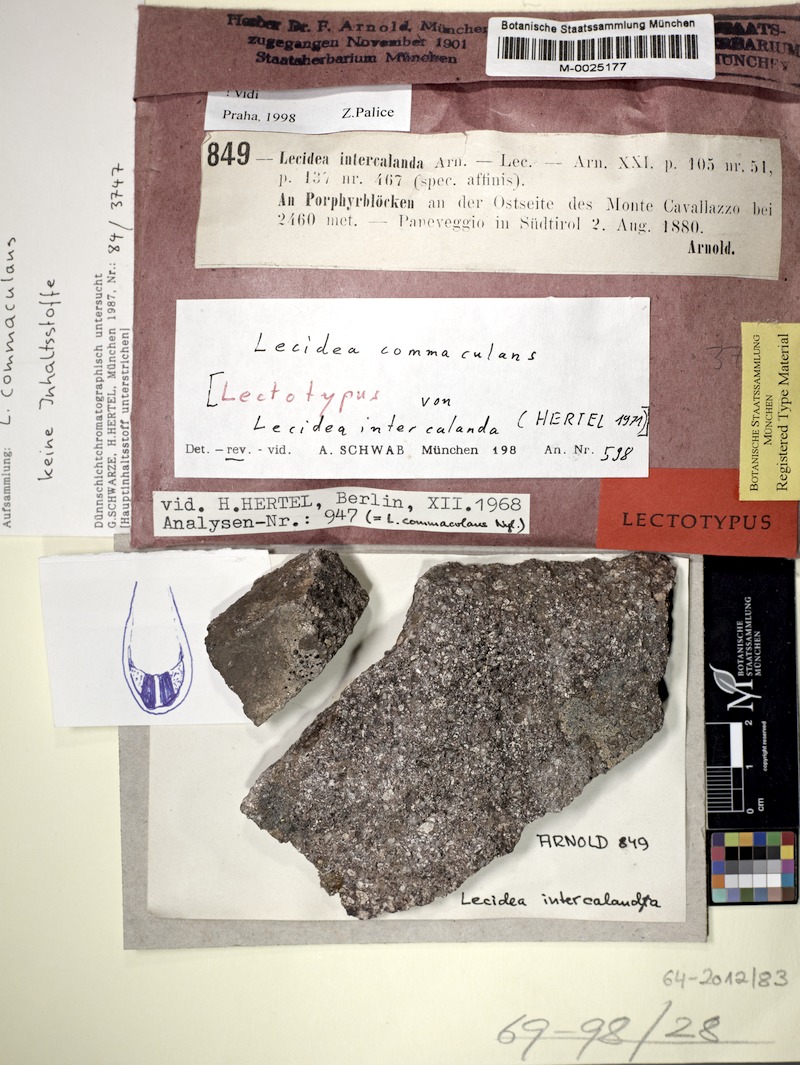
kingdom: Fungi
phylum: Ascomycota
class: Lecanoromycetes
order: Lecanorales
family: Psoraceae
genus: Protomicarea
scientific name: Protomicarea commaculans
